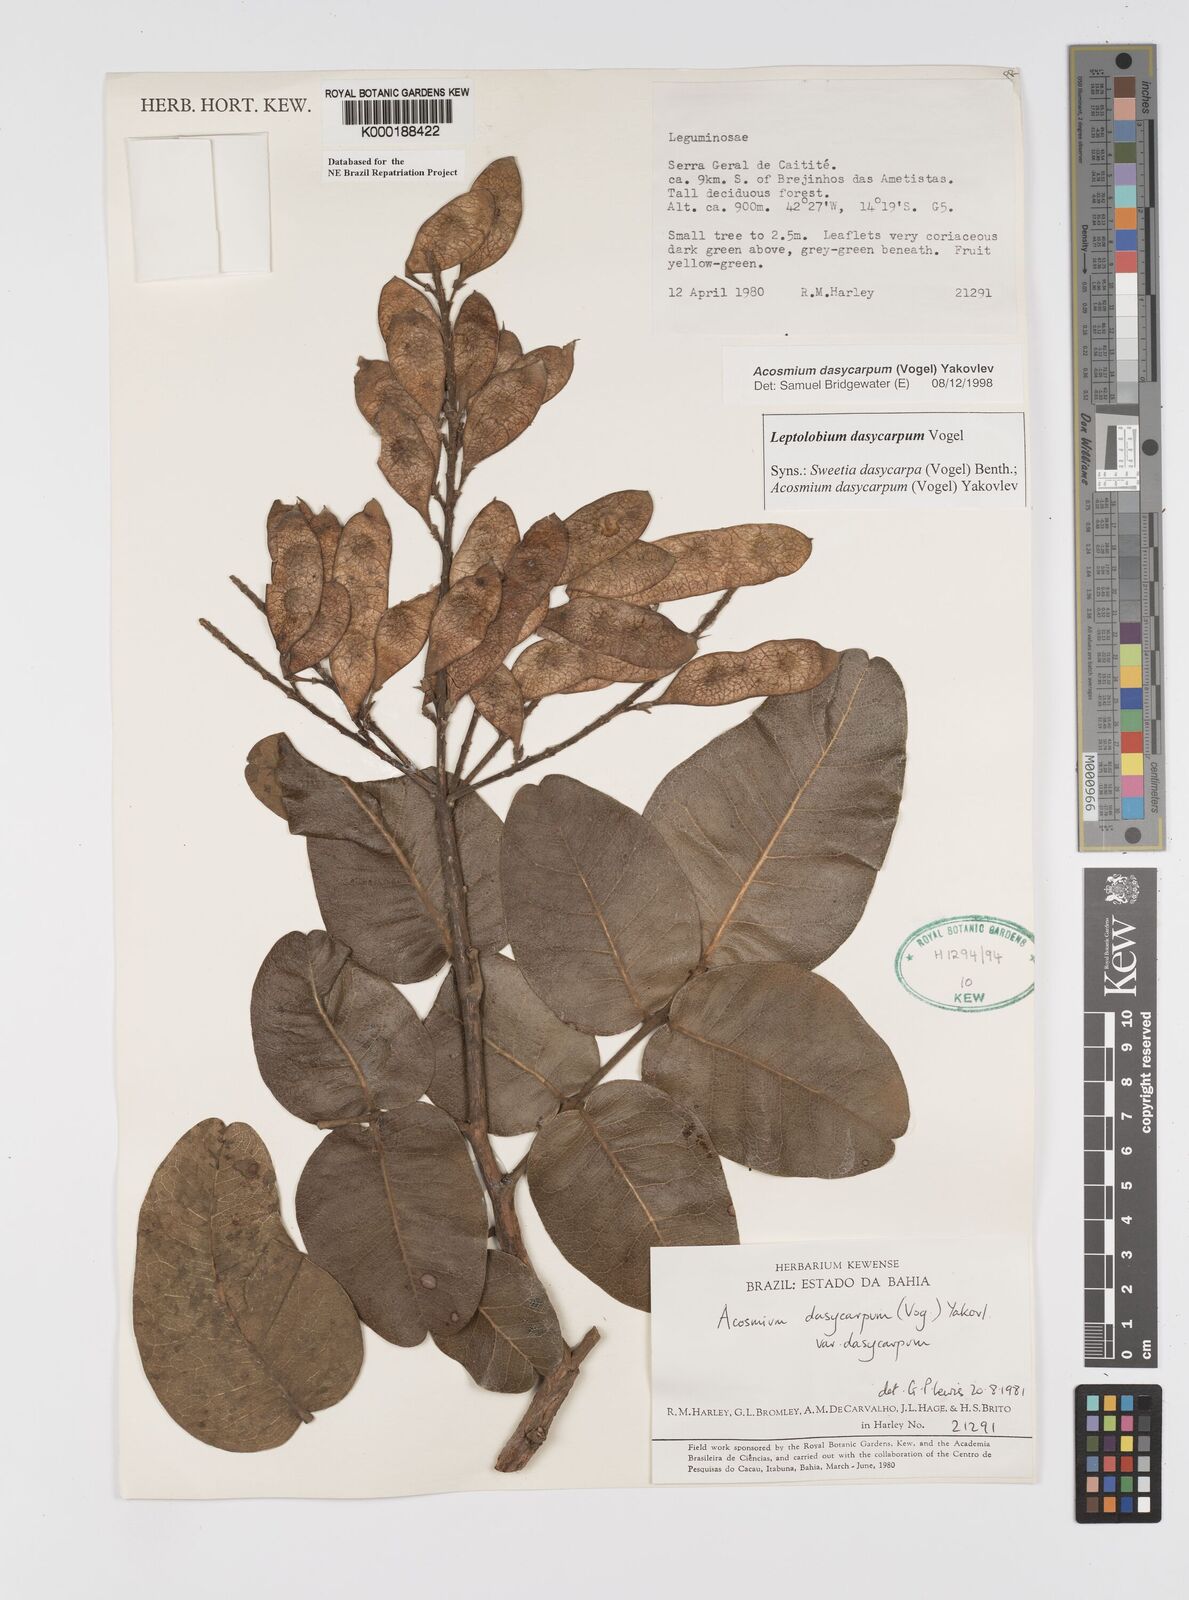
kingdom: Plantae
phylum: Tracheophyta
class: Magnoliopsida
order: Fabales
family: Fabaceae
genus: Leptolobium
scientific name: Leptolobium dasycarpum
